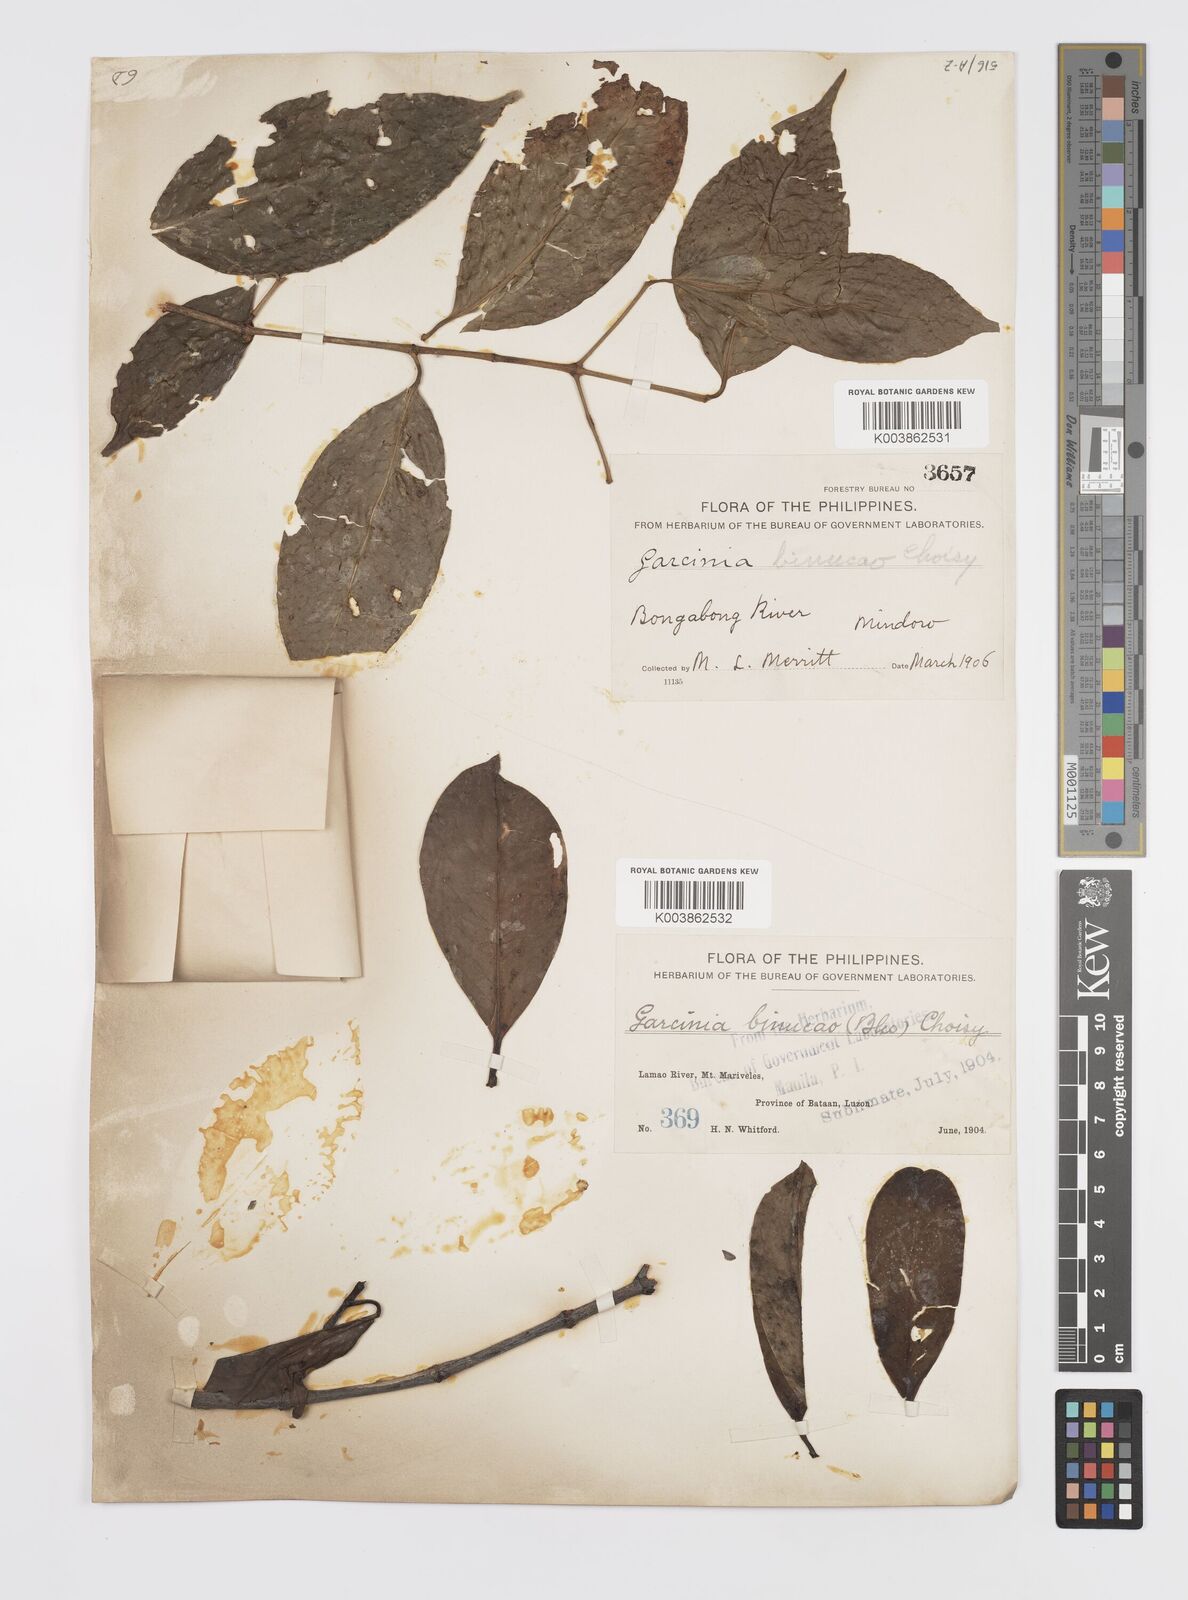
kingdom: Plantae
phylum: Tracheophyta
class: Magnoliopsida
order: Malpighiales
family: Clusiaceae
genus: Garcinia
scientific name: Garcinia binucao
